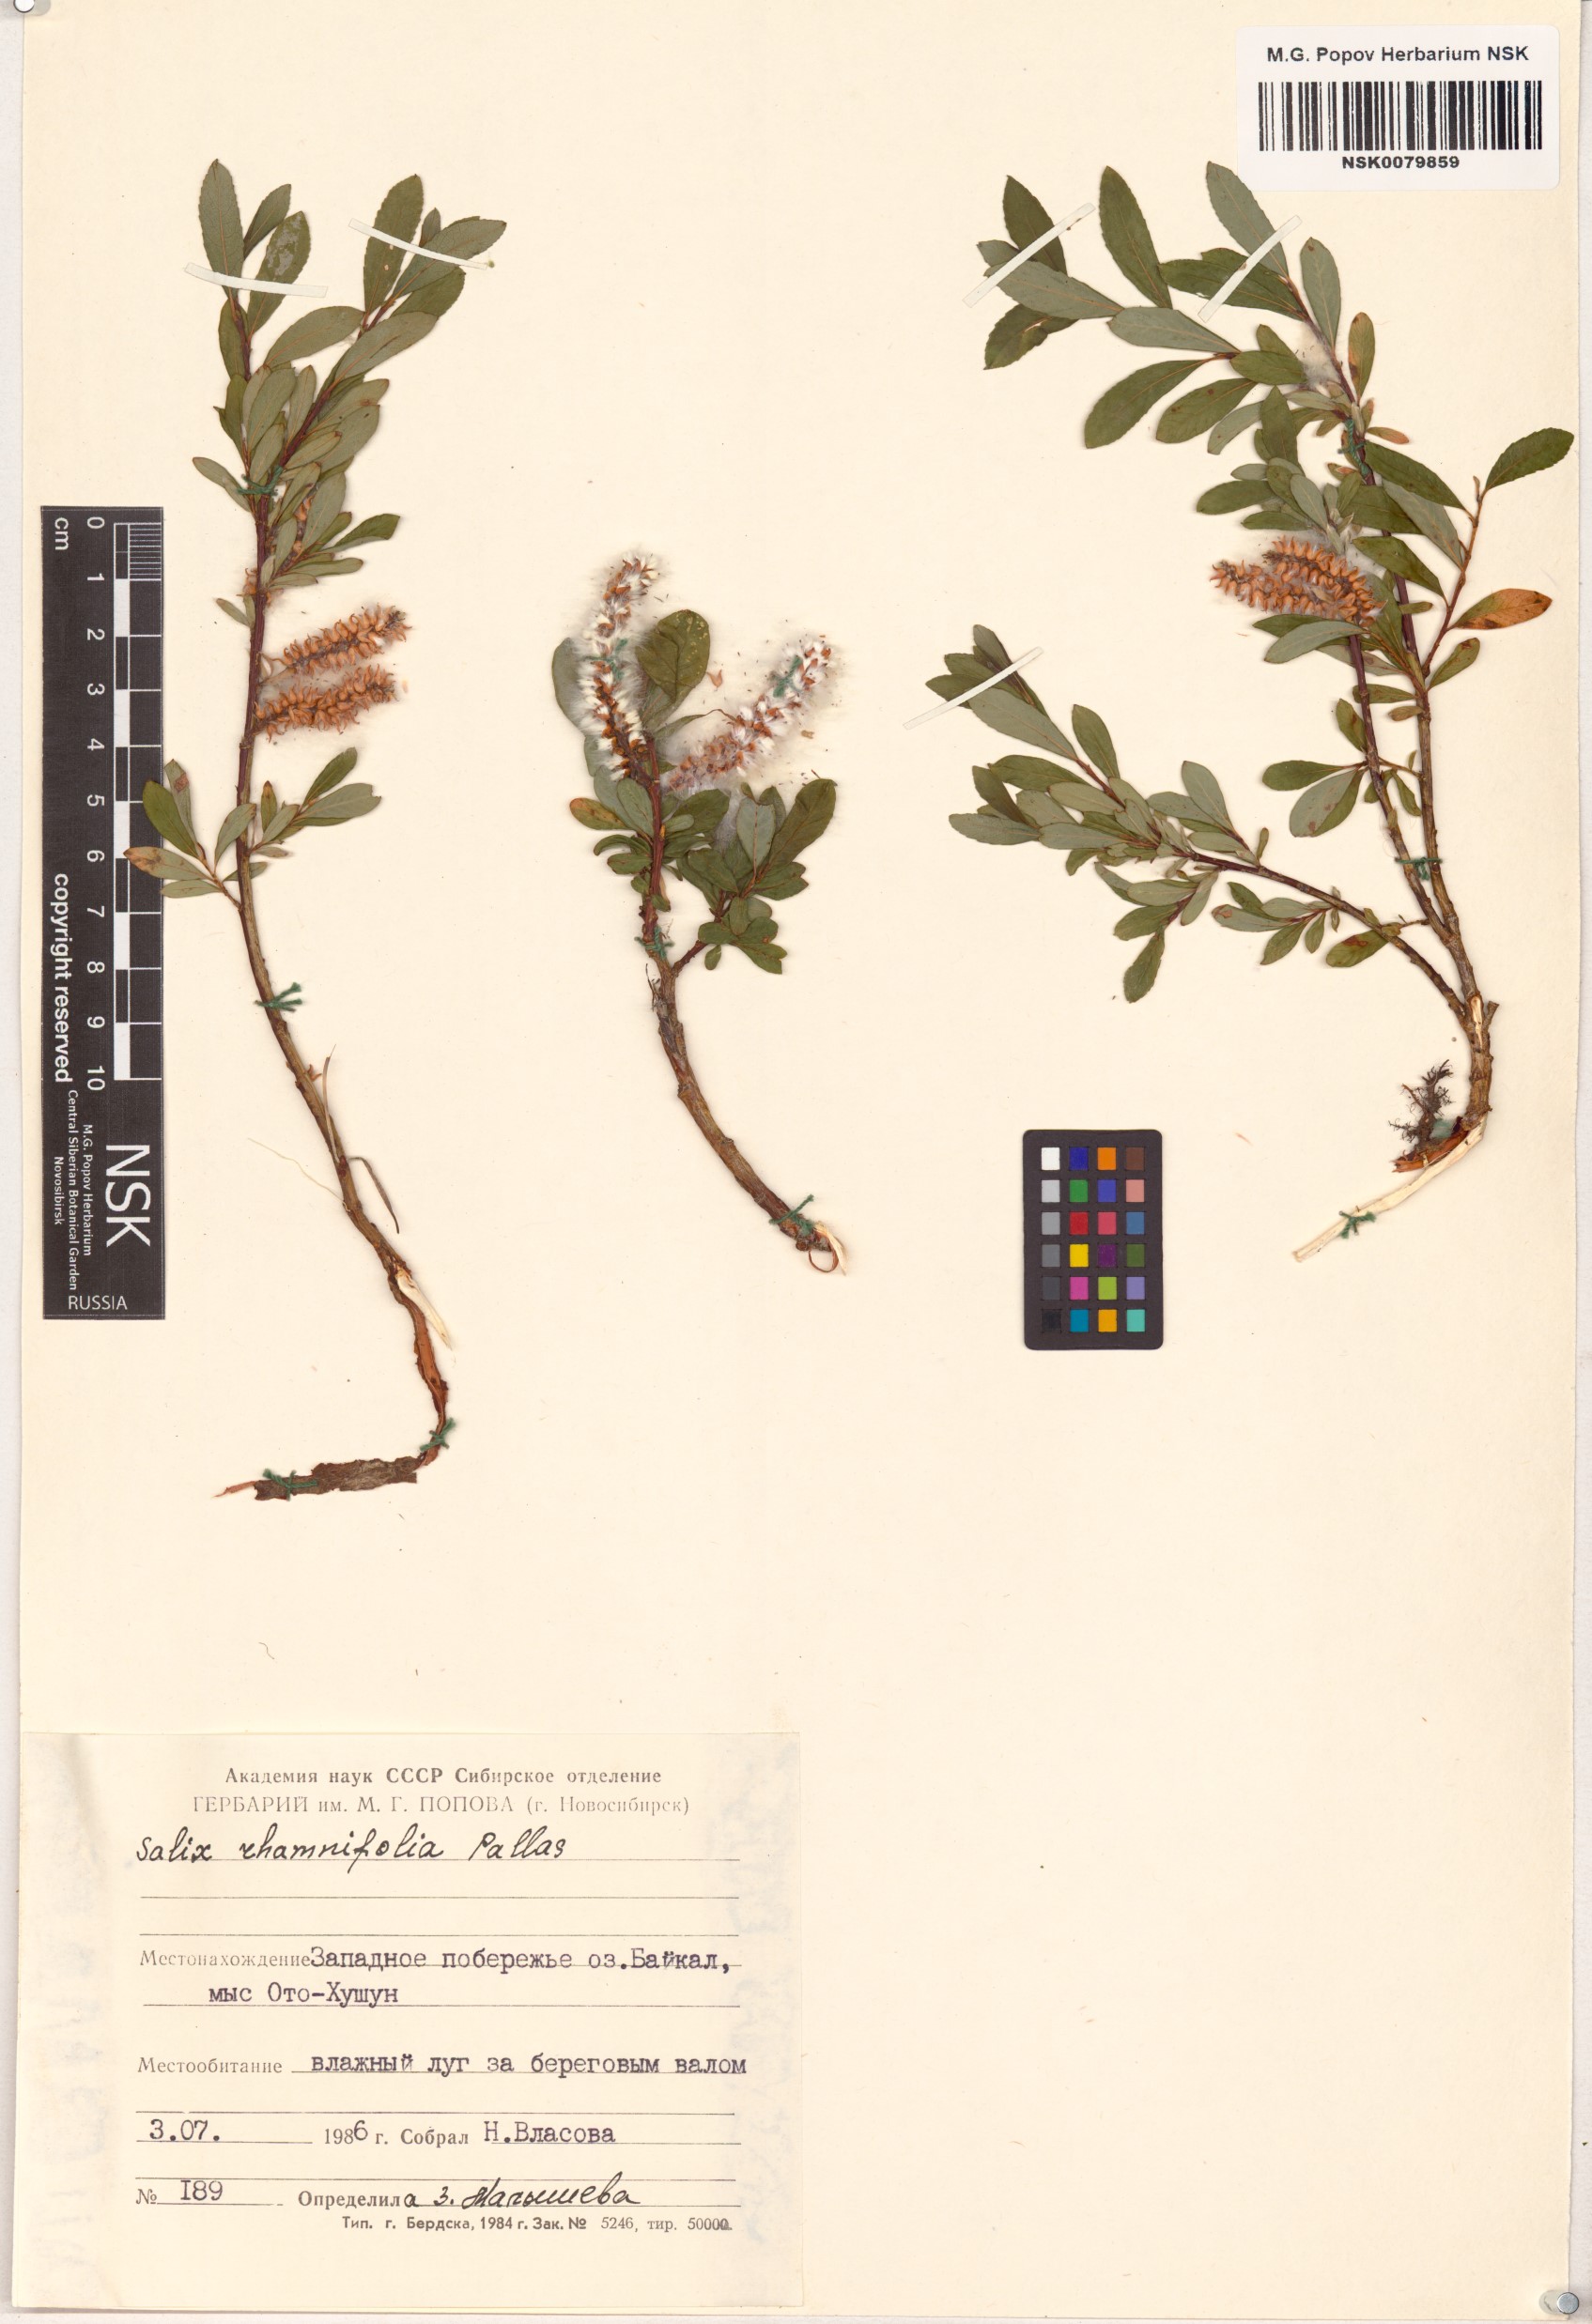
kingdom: Plantae
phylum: Tracheophyta
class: Magnoliopsida
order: Malpighiales
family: Salicaceae
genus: Salix
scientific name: Salix rhamnifolia
